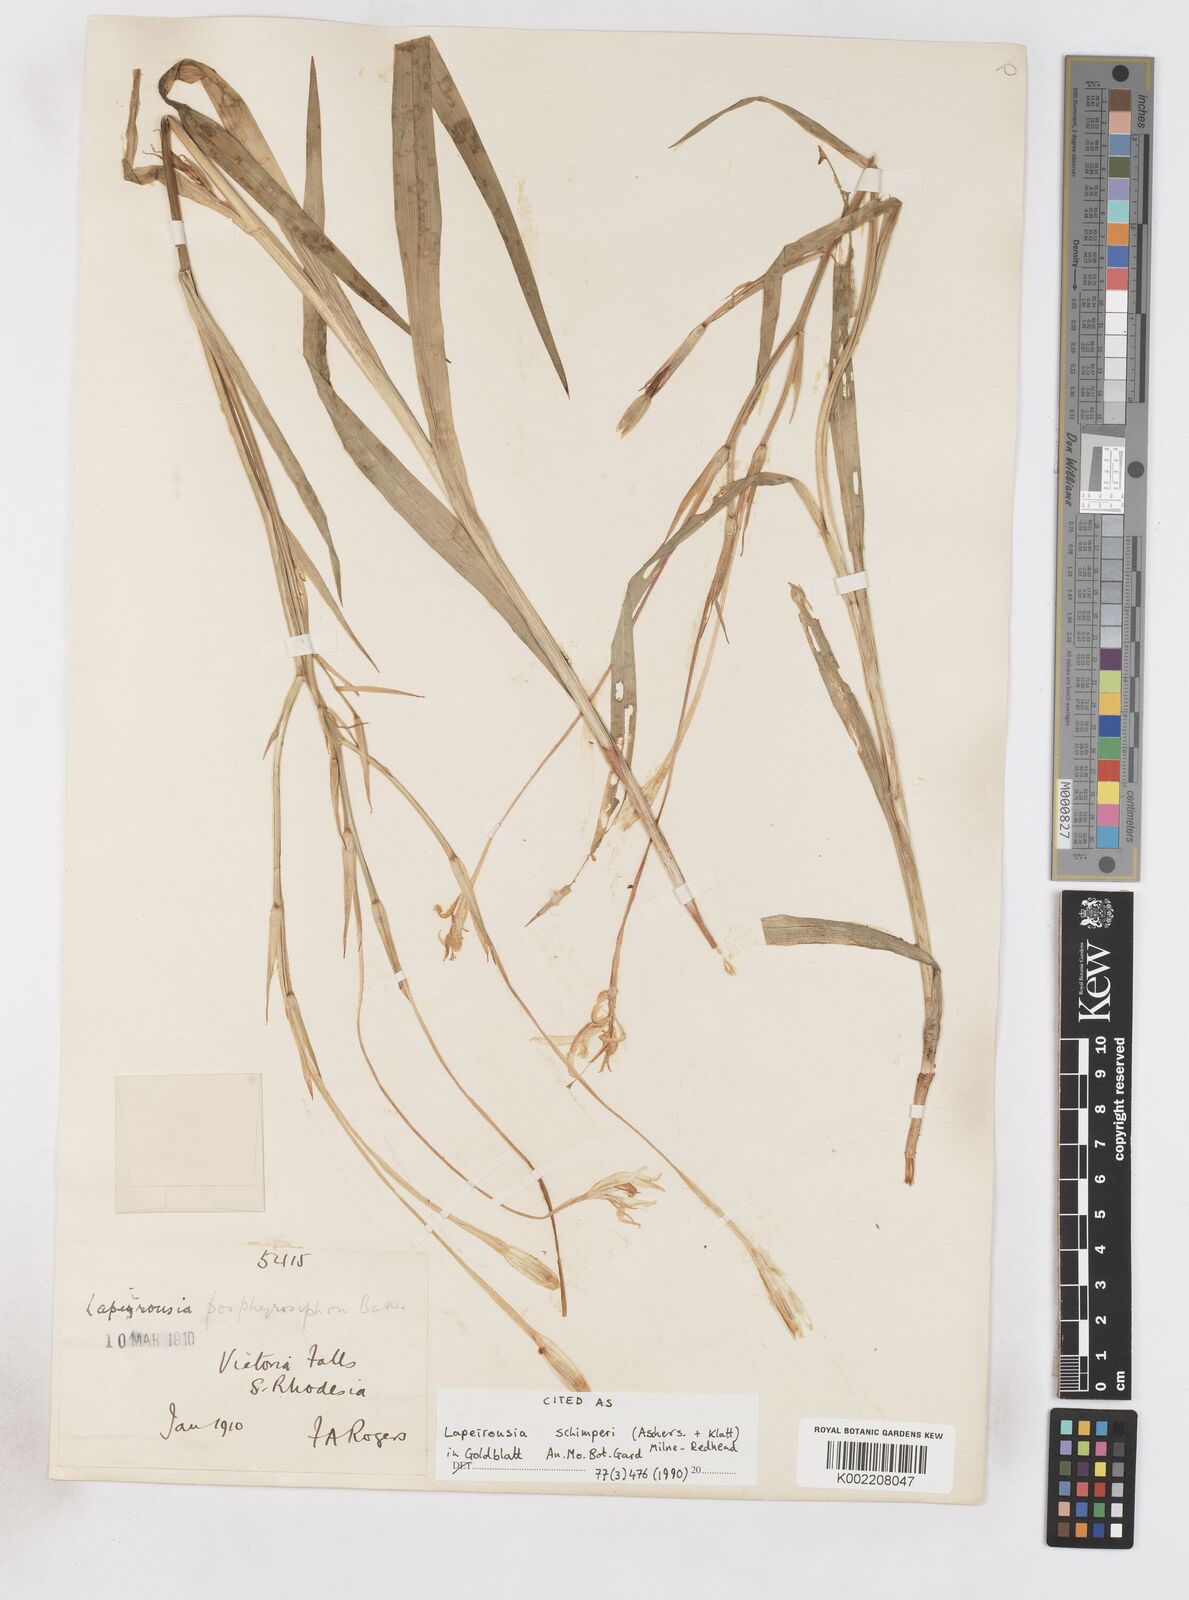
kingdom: Plantae
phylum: Tracheophyta
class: Liliopsida
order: Asparagales
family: Iridaceae
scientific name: Iridaceae
